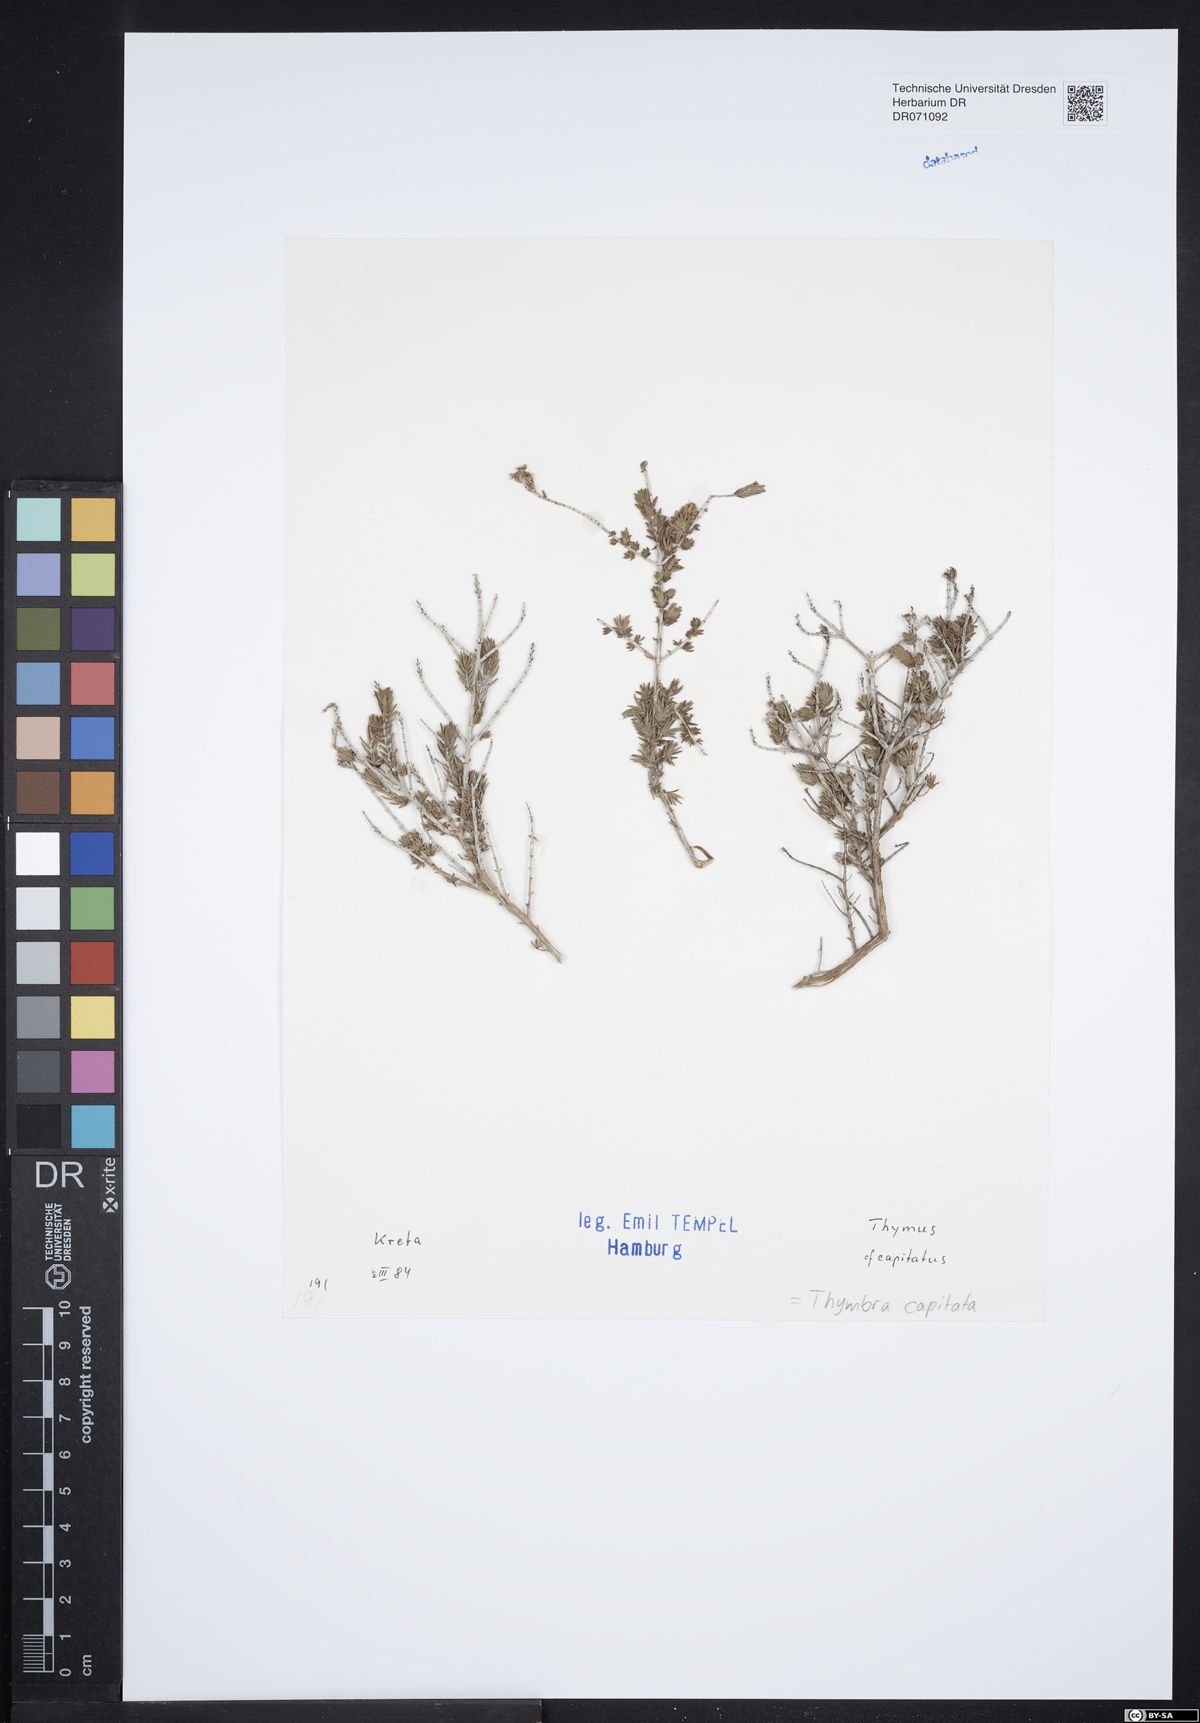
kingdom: Plantae
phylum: Tracheophyta
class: Magnoliopsida
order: Lamiales
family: Lamiaceae
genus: Thymbra
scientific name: Thymbra capitata
